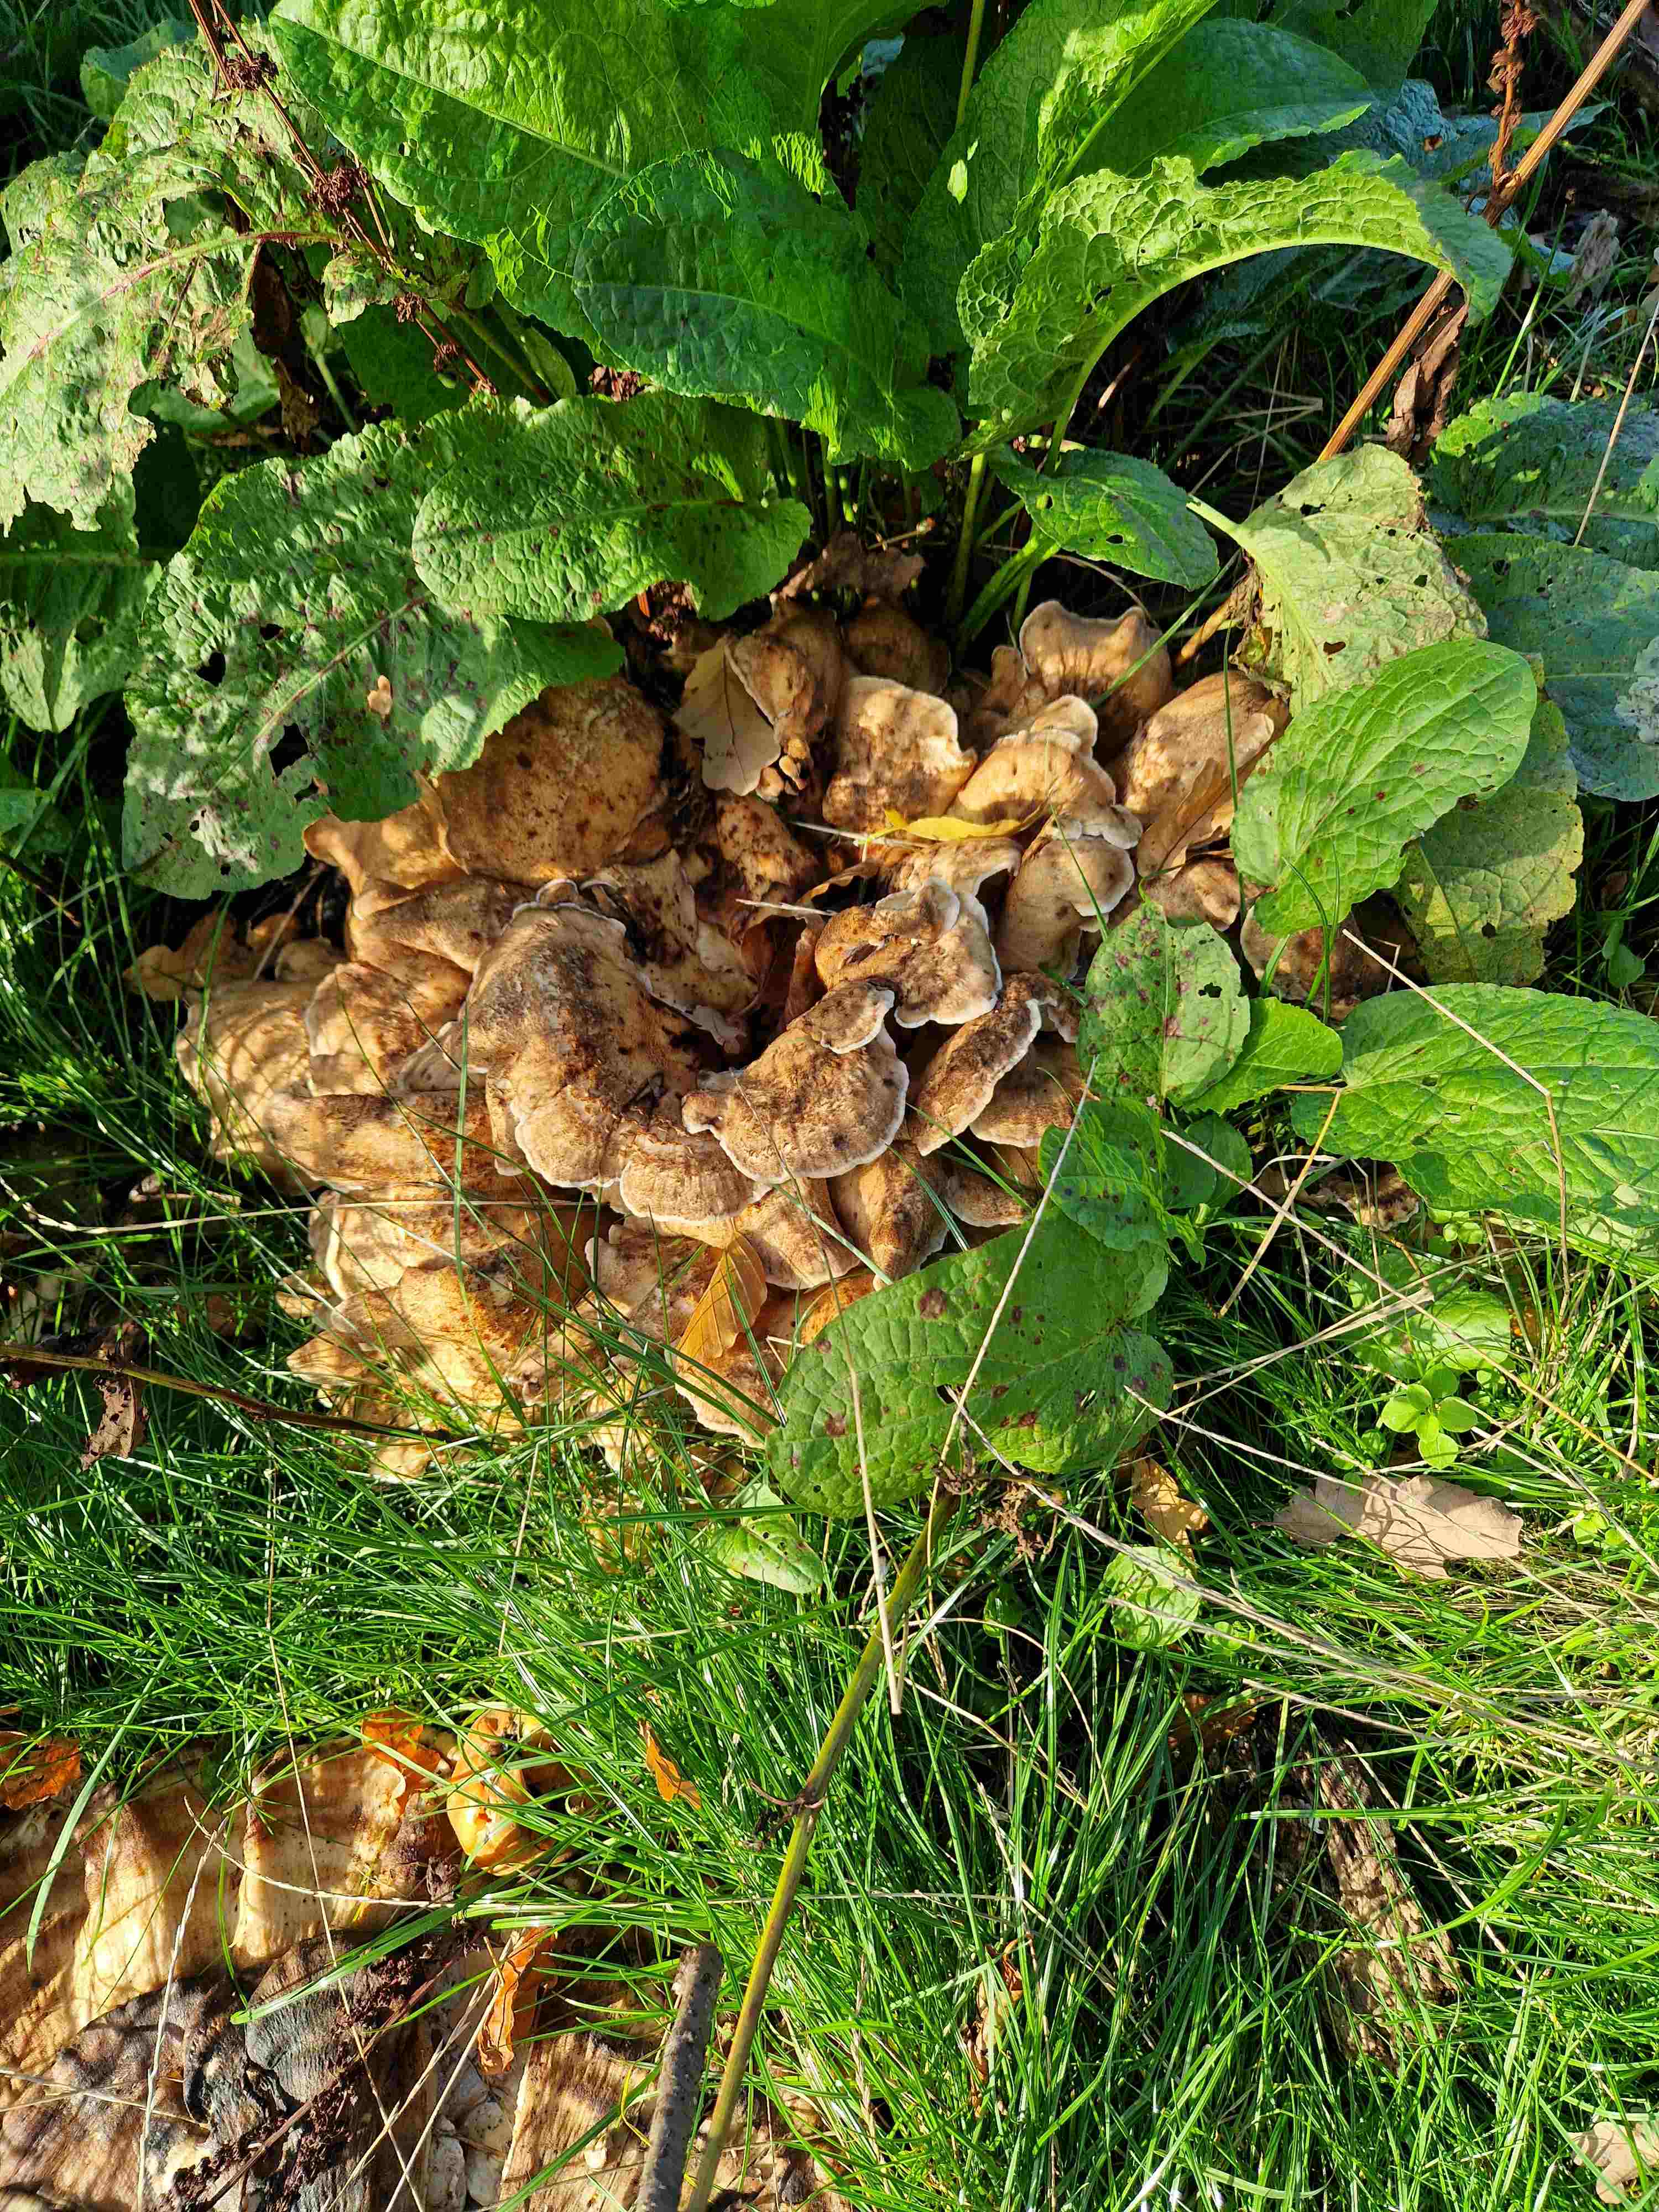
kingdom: Fungi
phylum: Basidiomycota
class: Agaricomycetes
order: Polyporales
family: Meripilaceae
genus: Meripilus
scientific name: Meripilus giganteus
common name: kæmpeporesvamp
